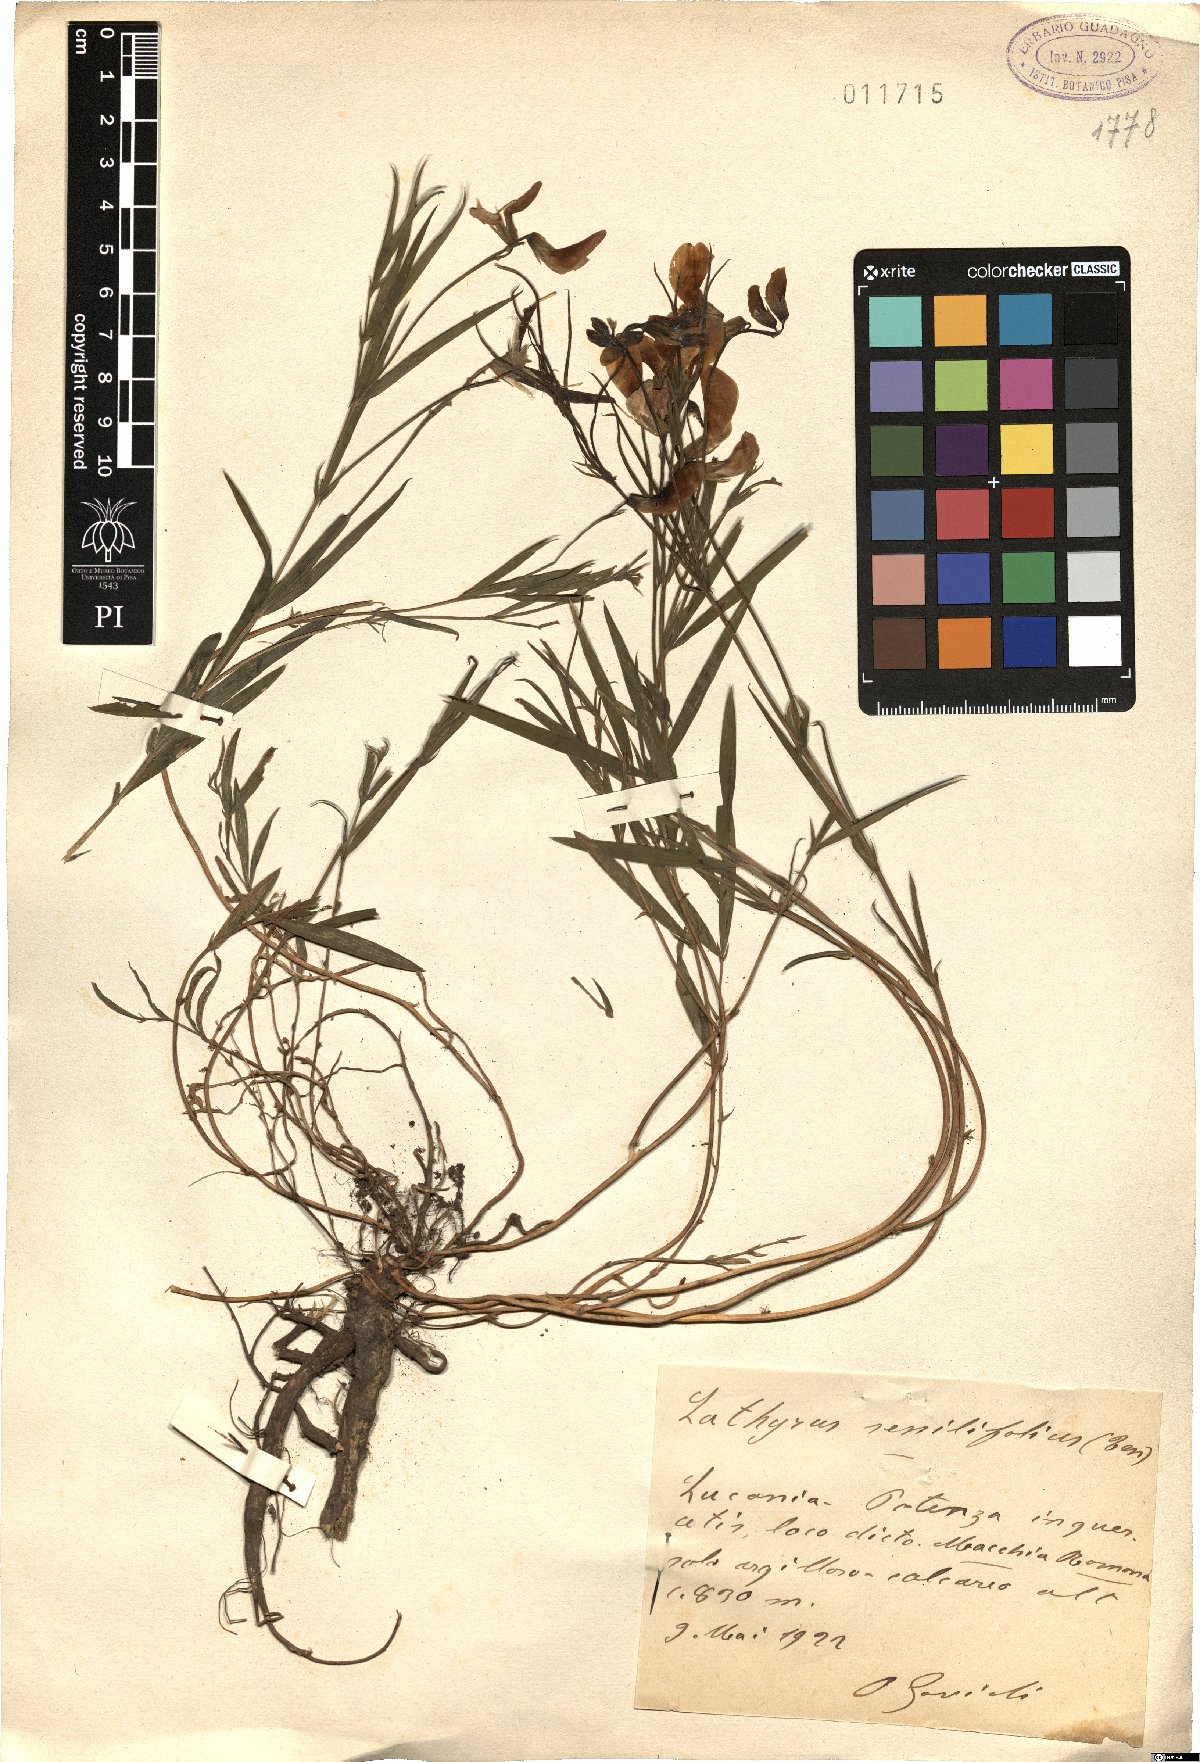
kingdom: Plantae
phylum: Tracheophyta
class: Magnoliopsida
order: Fabales
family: Fabaceae
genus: Lathyrus
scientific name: Lathyrus digitatus
